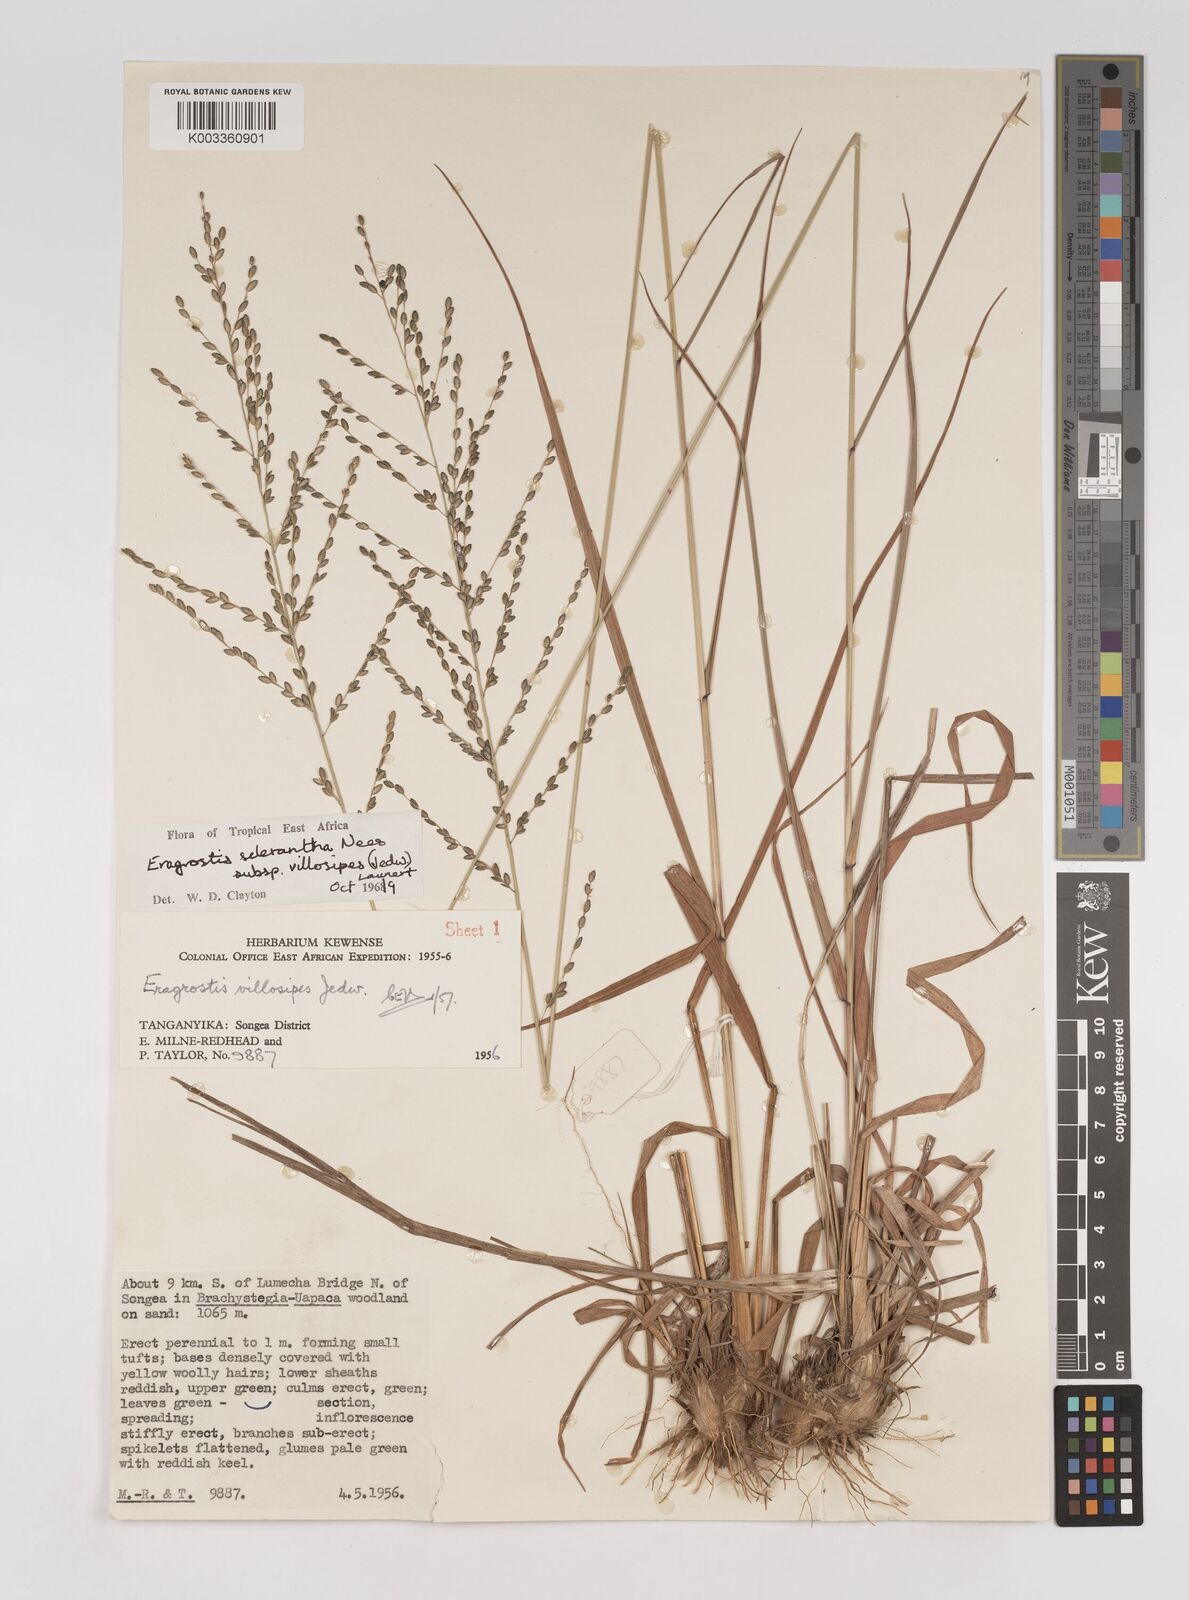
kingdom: Plantae
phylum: Tracheophyta
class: Liliopsida
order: Poales
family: Poaceae
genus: Eragrostis
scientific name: Eragrostis sclerantha
